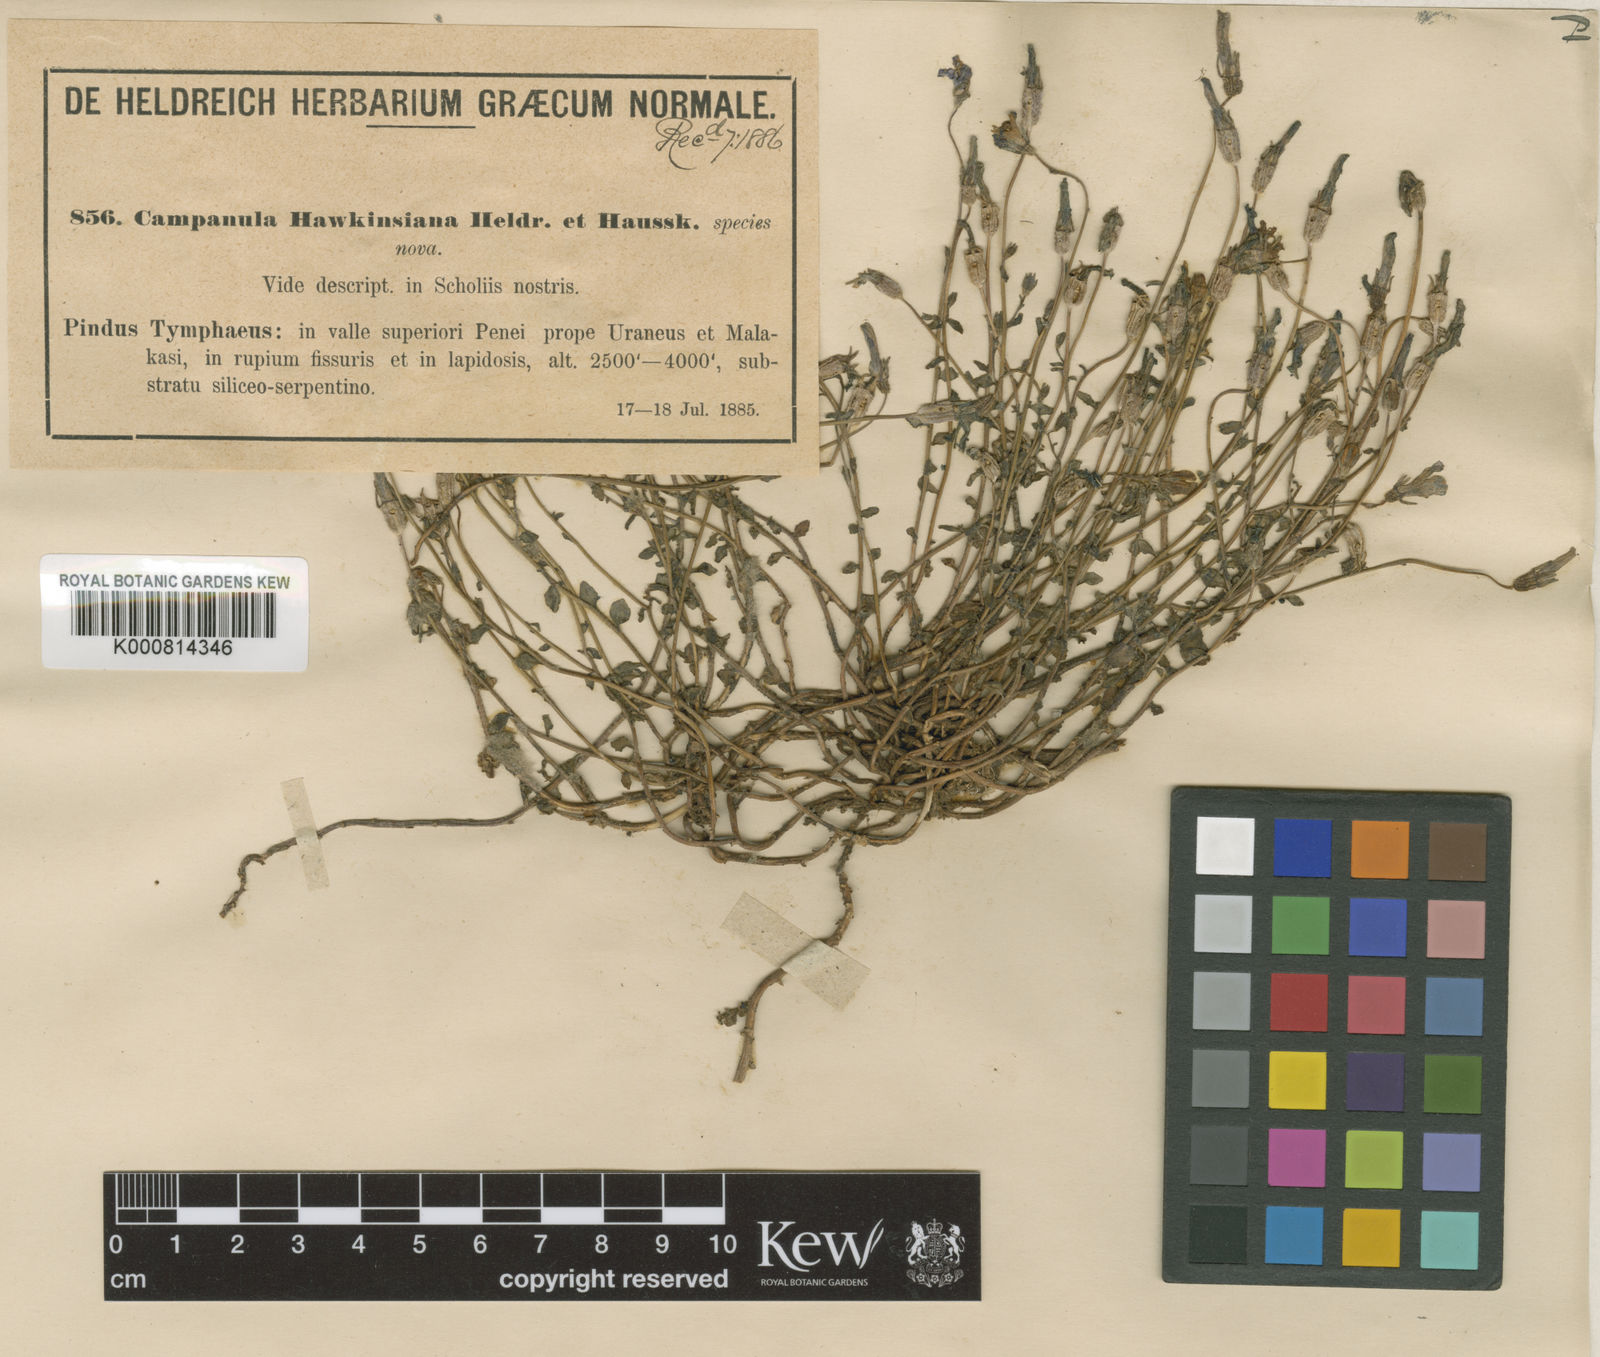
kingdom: Plantae
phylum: Tracheophyta
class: Magnoliopsida
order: Asterales
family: Campanulaceae
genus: Campanula
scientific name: Campanula hawkinsiana
